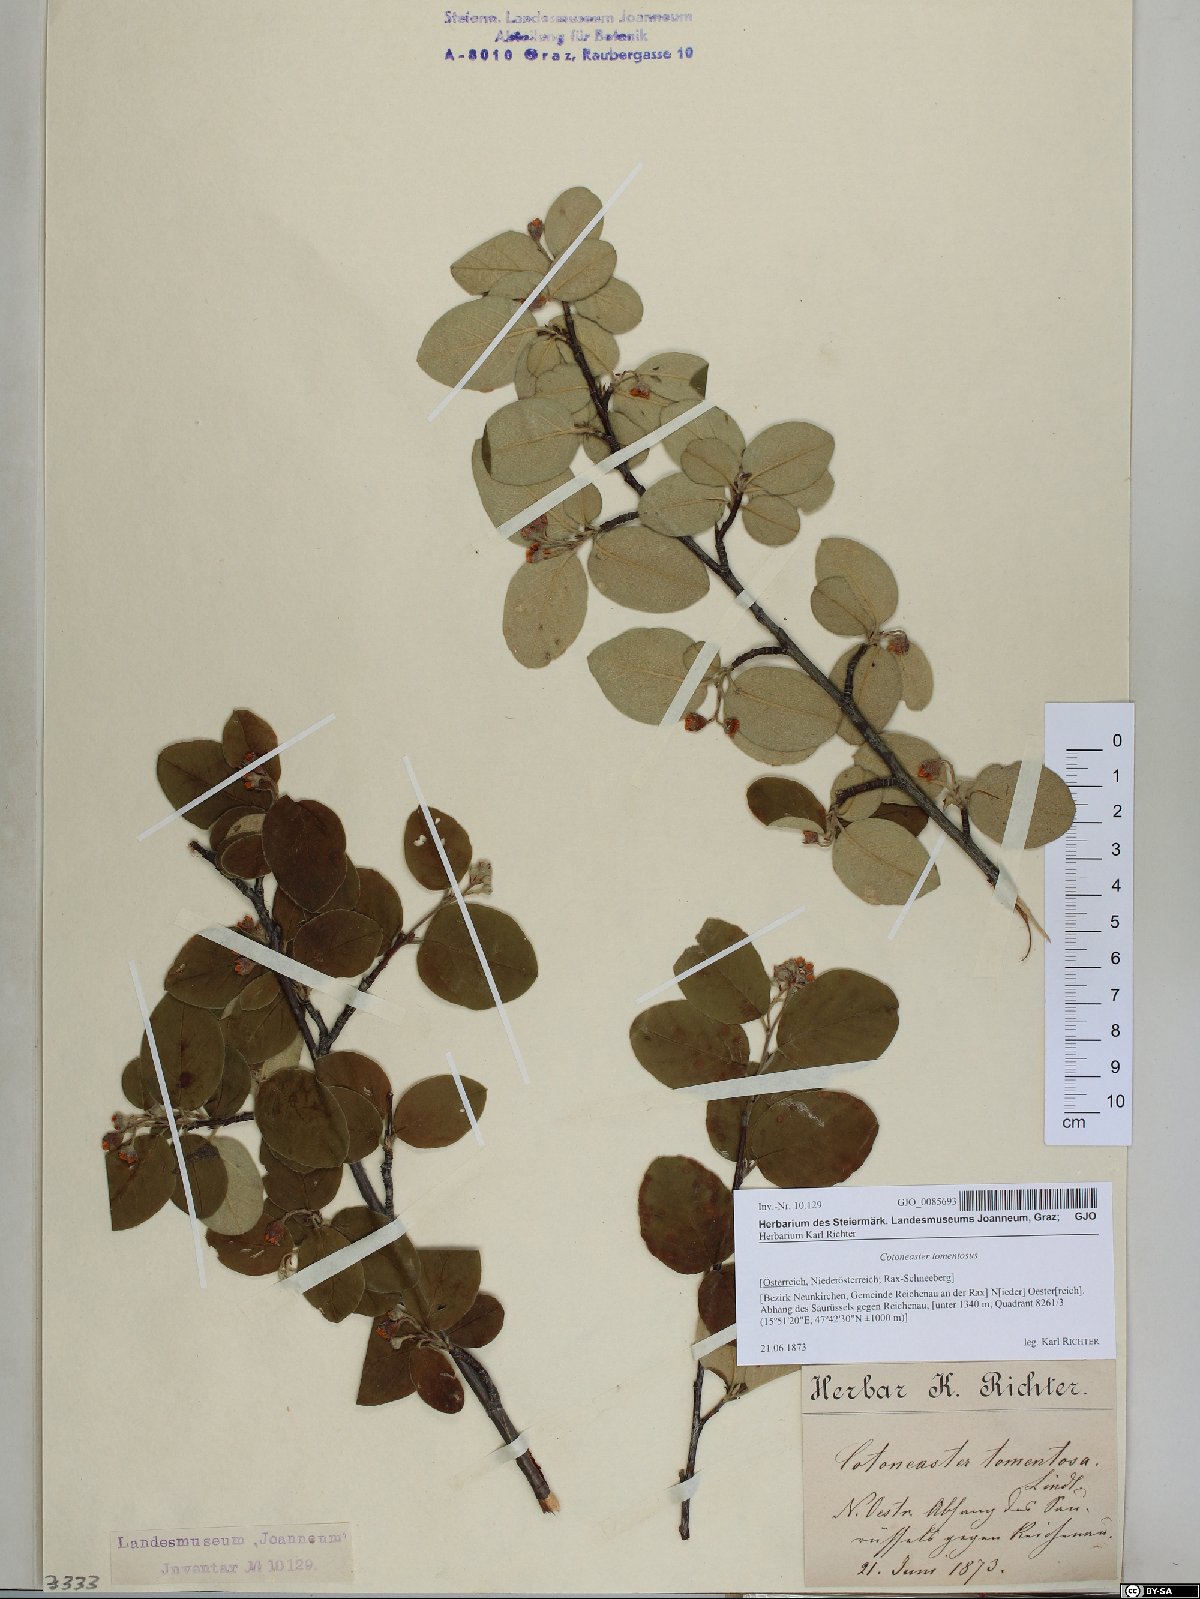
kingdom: Plantae
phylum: Tracheophyta
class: Magnoliopsida
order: Rosales
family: Rosaceae
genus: Cotoneaster
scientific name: Cotoneaster tomentosus
